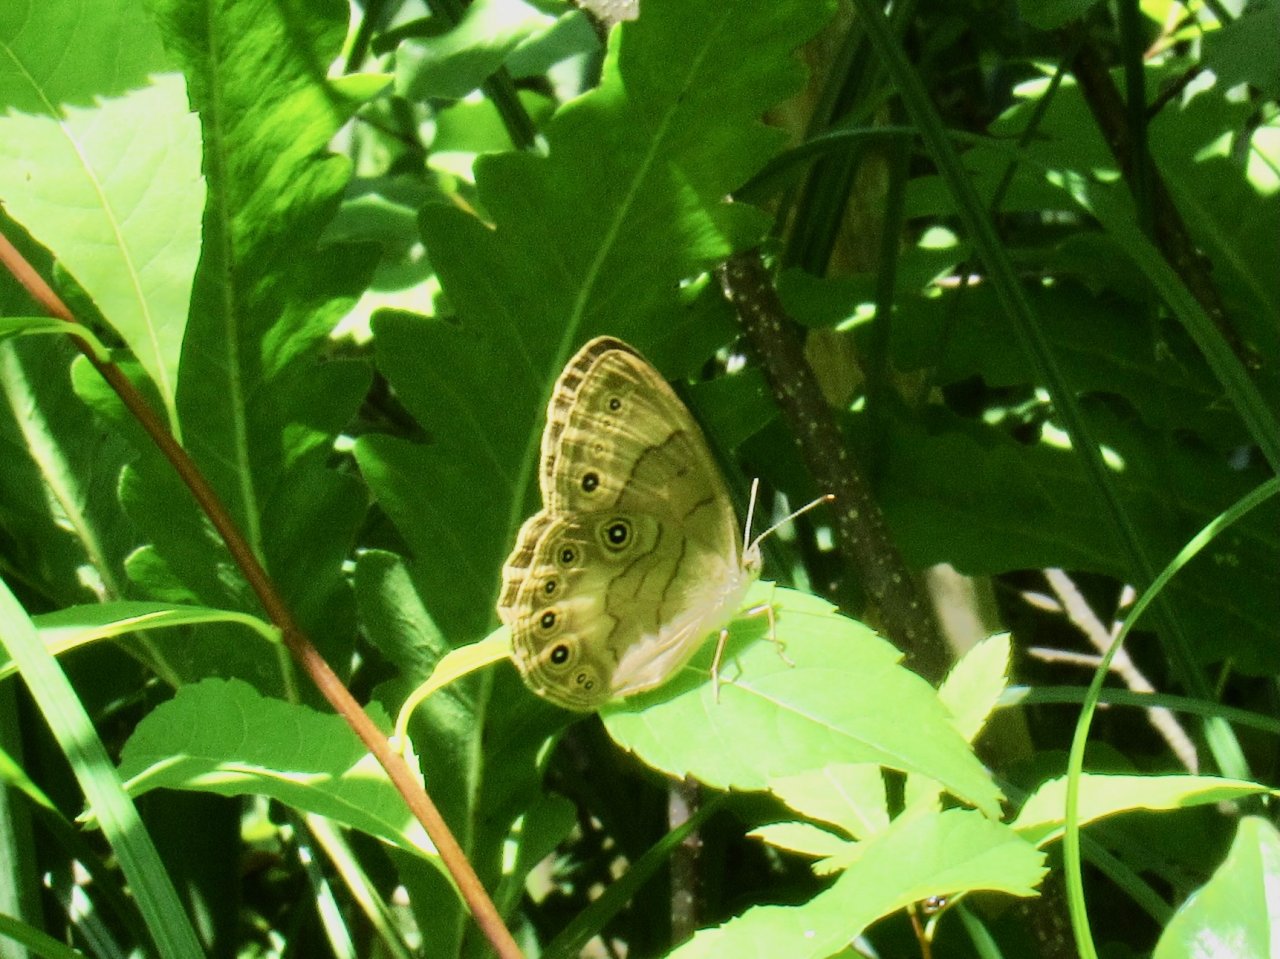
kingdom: Animalia
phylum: Arthropoda
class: Insecta
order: Lepidoptera
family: Nymphalidae
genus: Lethe
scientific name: Lethe eurydice
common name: Appalachian Eyed Brown
